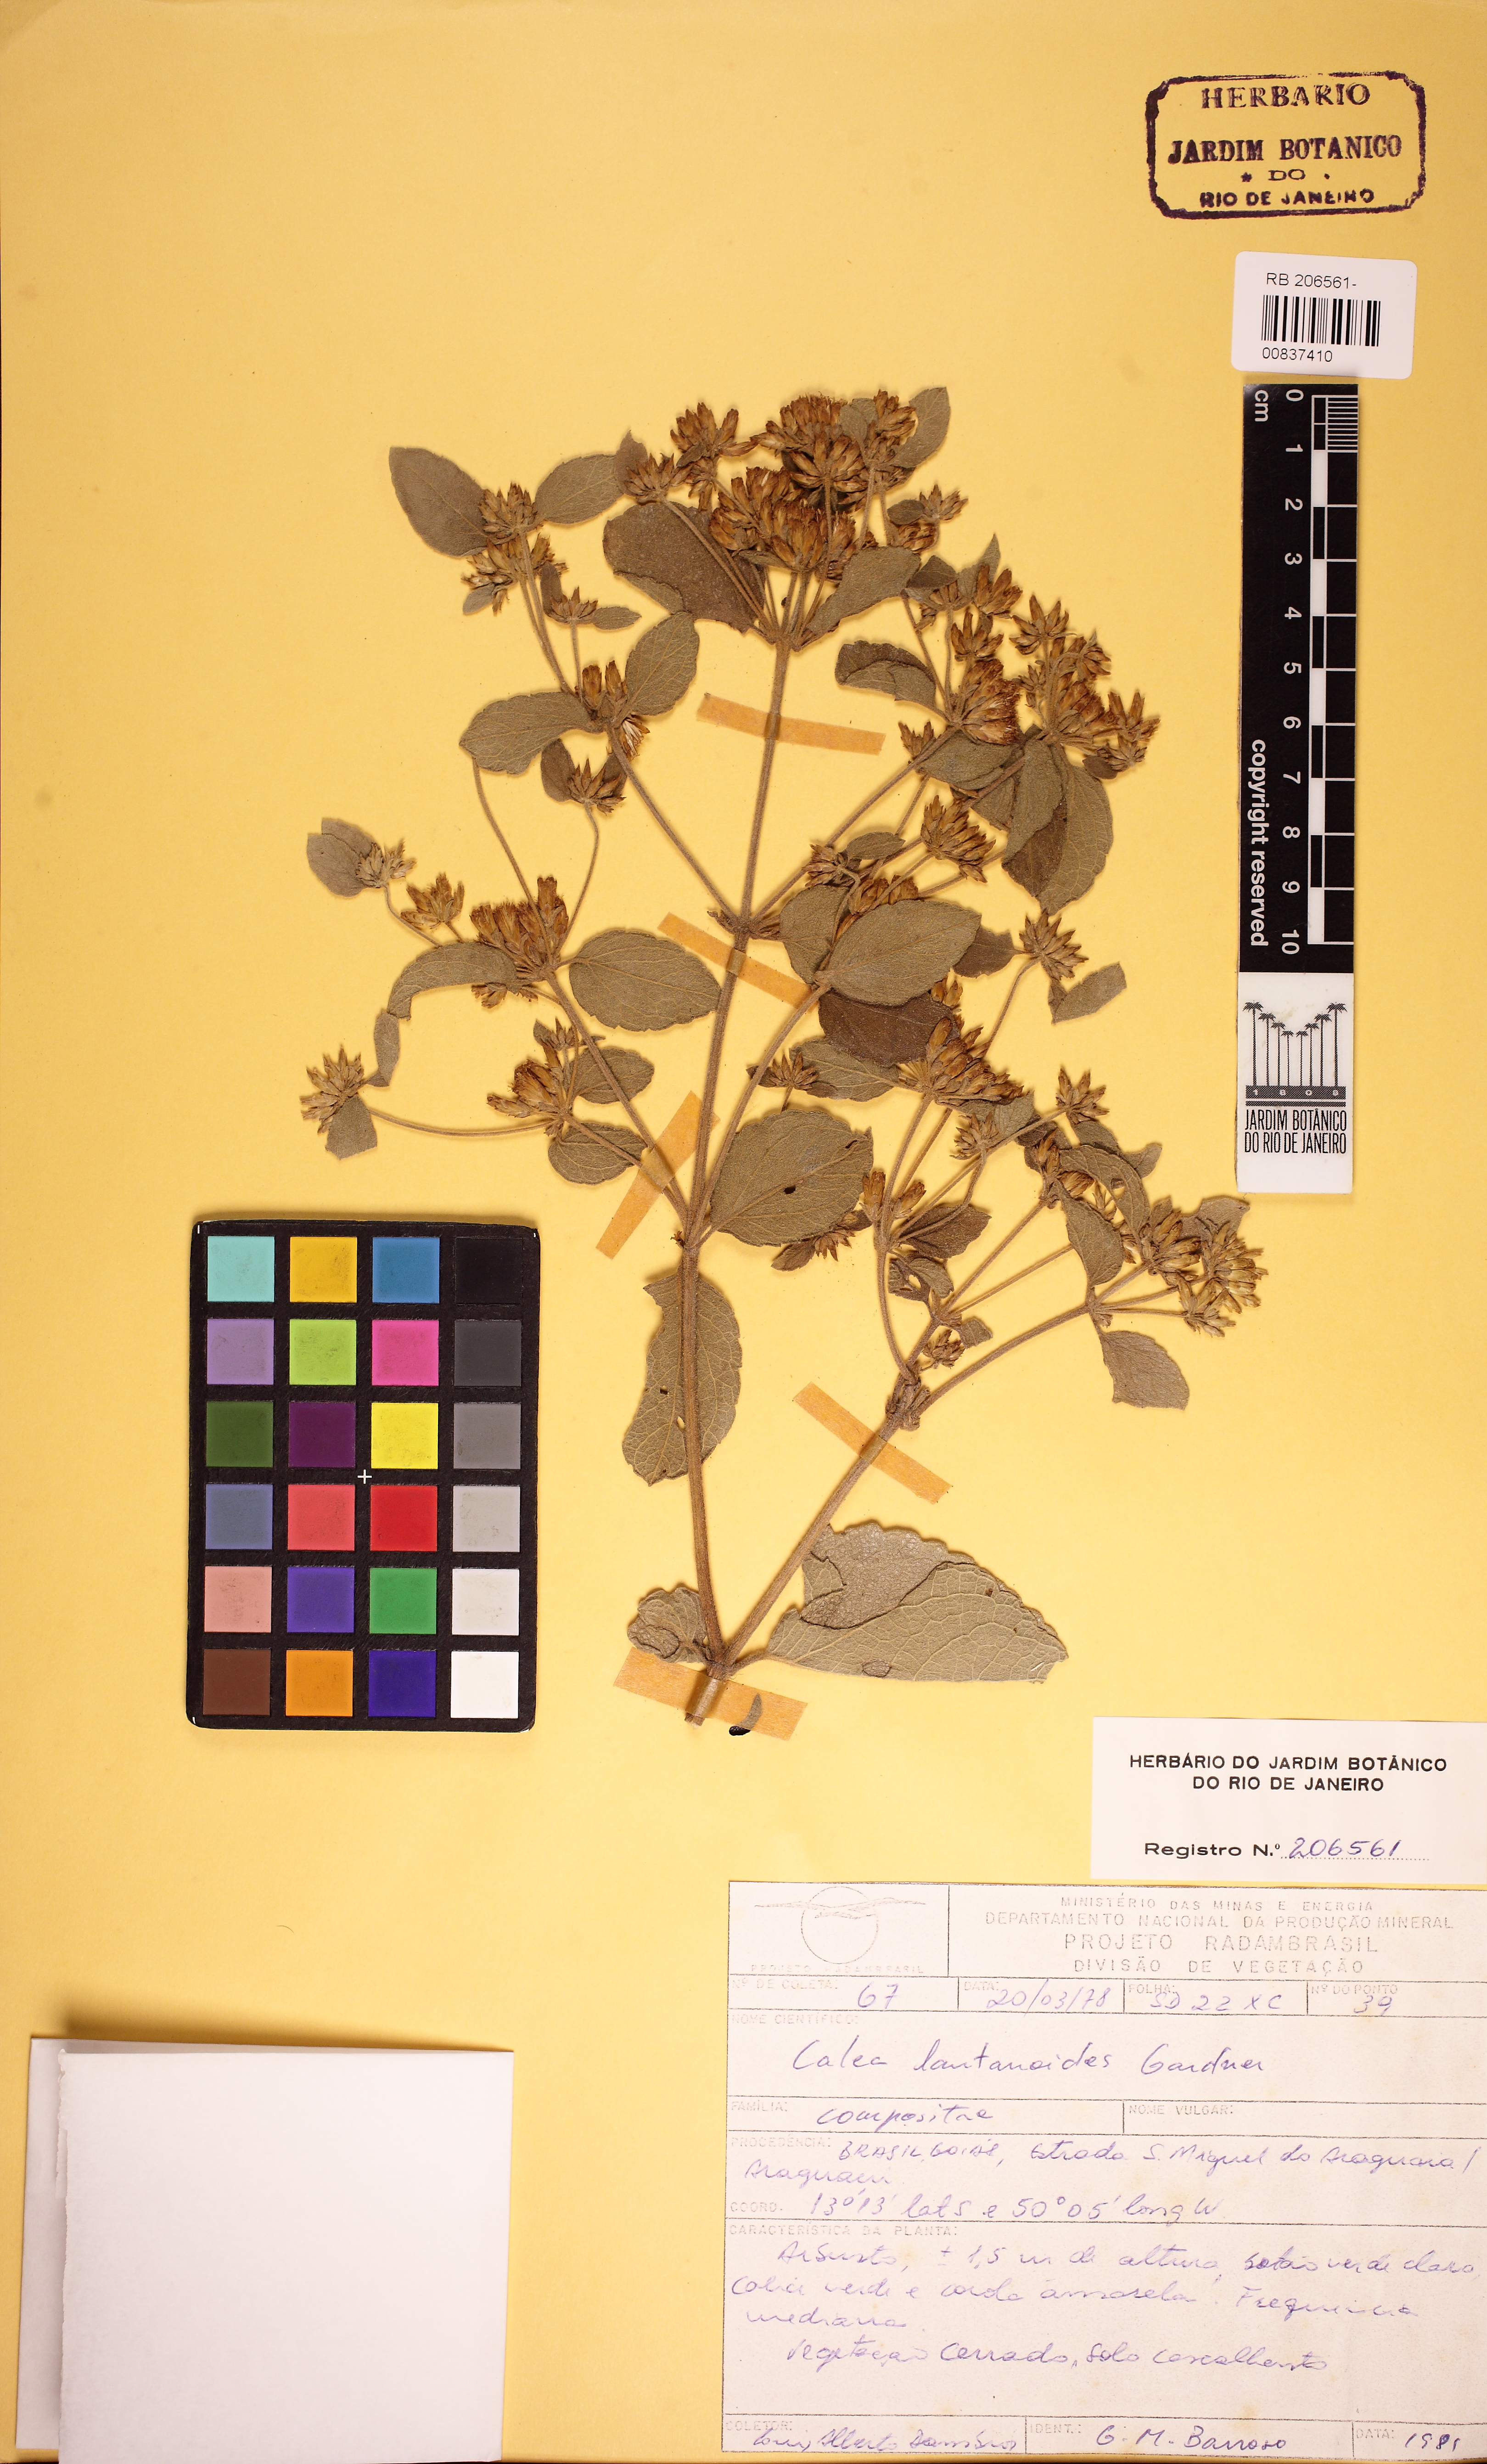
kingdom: Plantae
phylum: Tracheophyta
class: Magnoliopsida
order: Asterales
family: Asteraceae
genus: Calea
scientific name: Calea lantanoides
